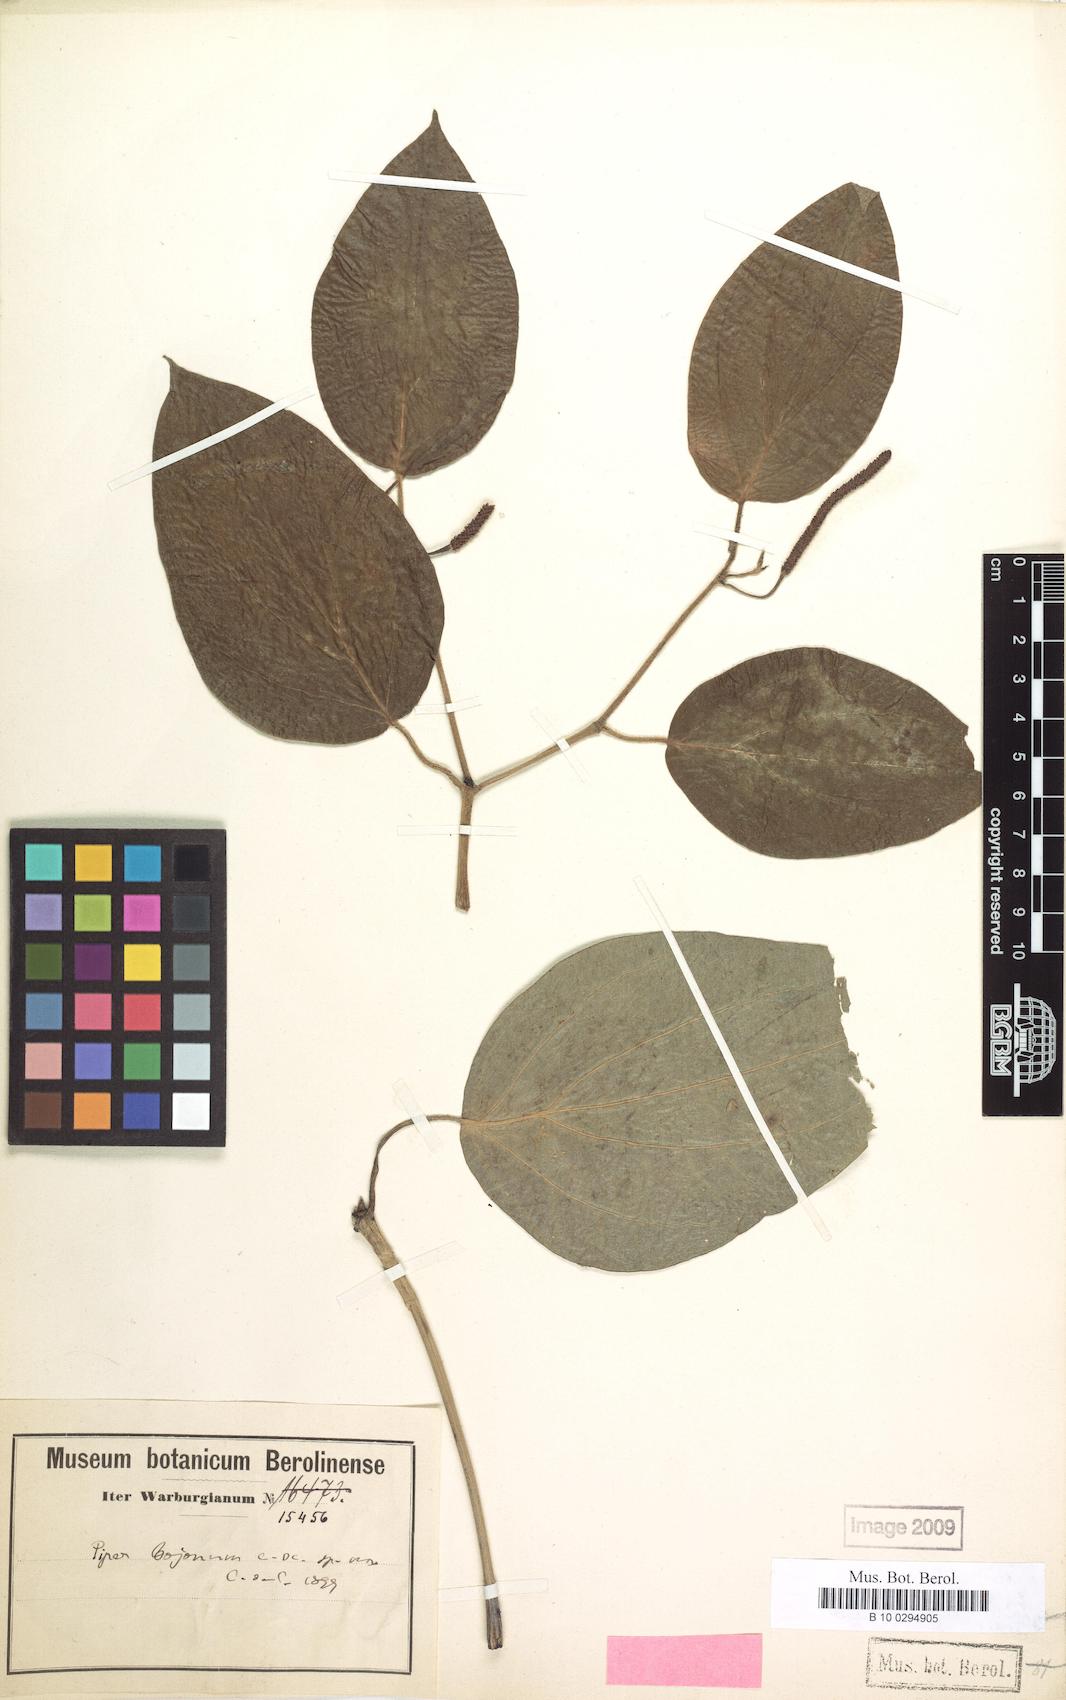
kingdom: Plantae
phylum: Tracheophyta
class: Magnoliopsida
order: Piperales
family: Piperaceae
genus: Piper
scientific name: Piper bojonyum
